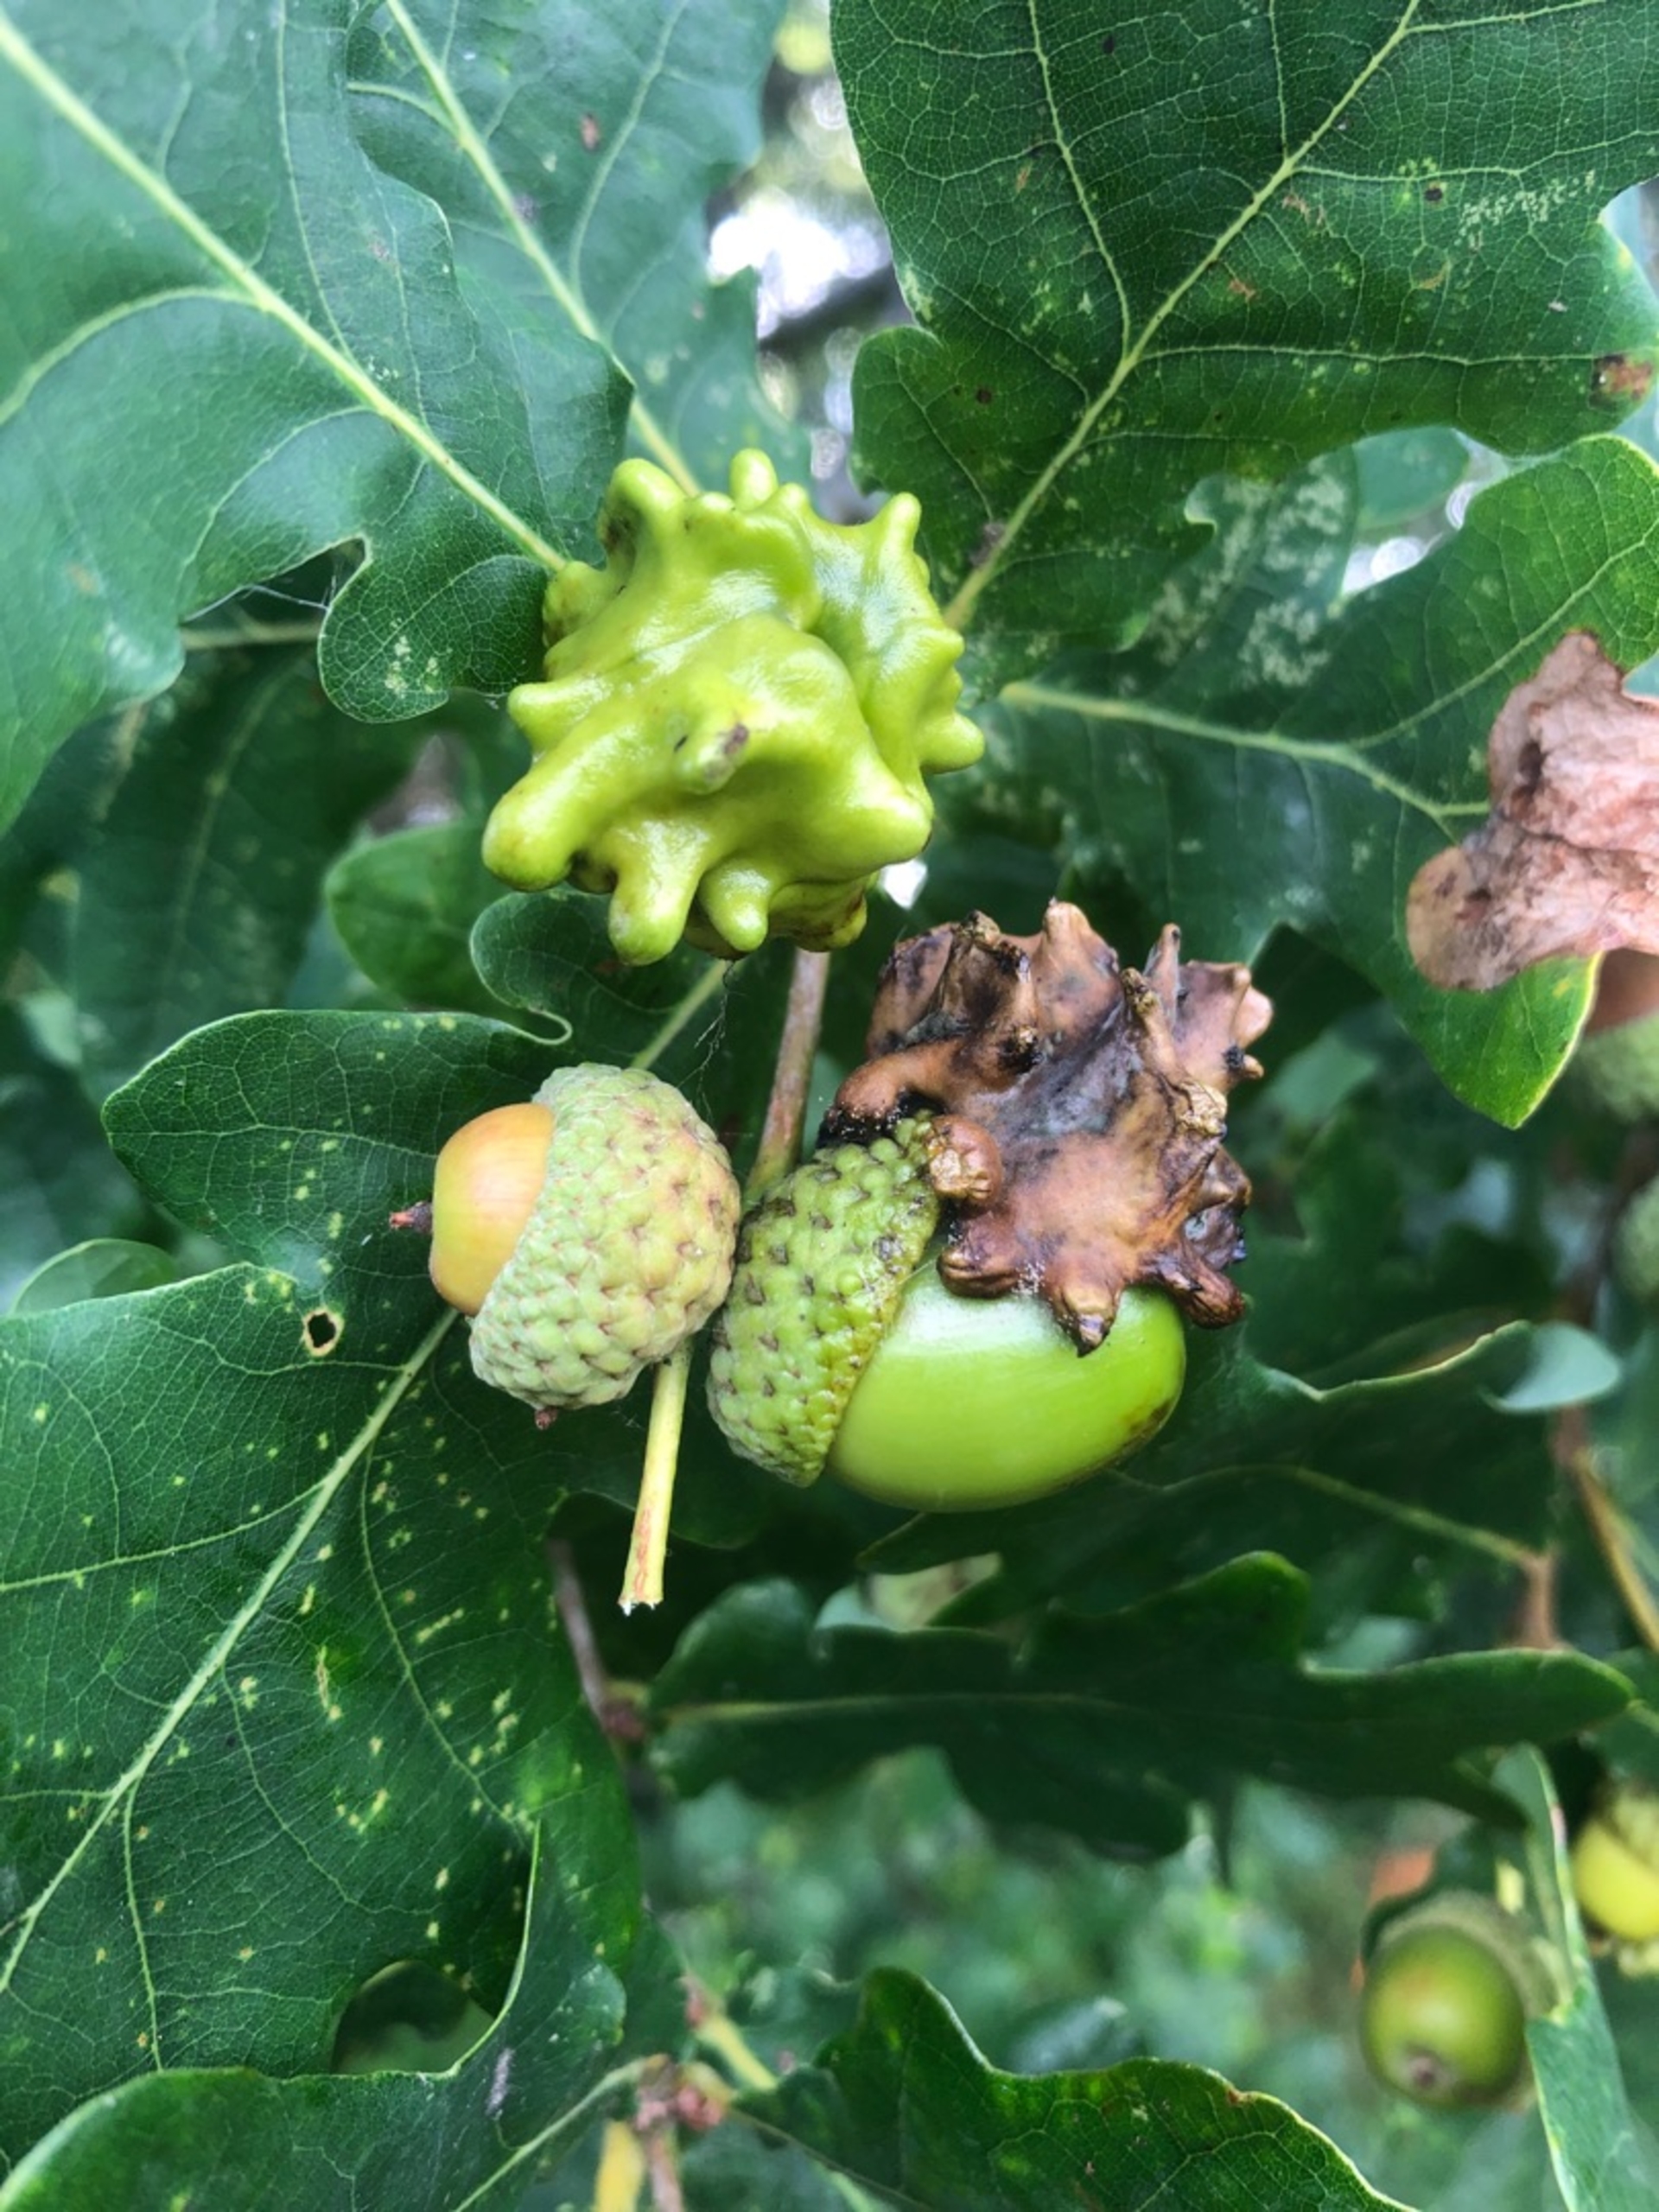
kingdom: Animalia
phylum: Arthropoda
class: Insecta
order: Hymenoptera
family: Cynipidae
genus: Andricus
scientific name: Andricus quercuscalicis
